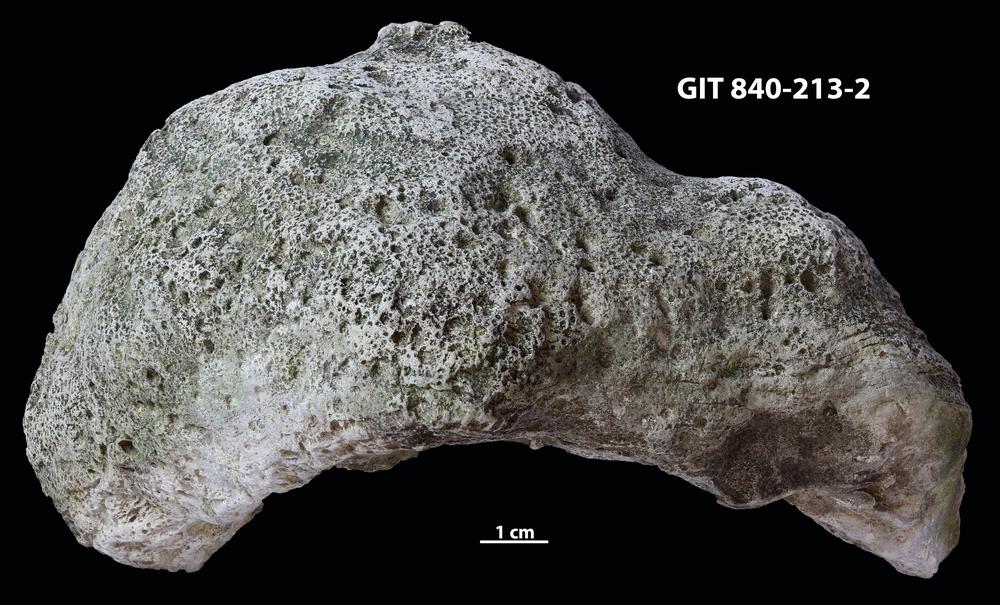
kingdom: Animalia
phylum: Cnidaria
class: Anthozoa
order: Heliolitina
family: Heliolitidae
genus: Acidolites
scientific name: Acidolites
